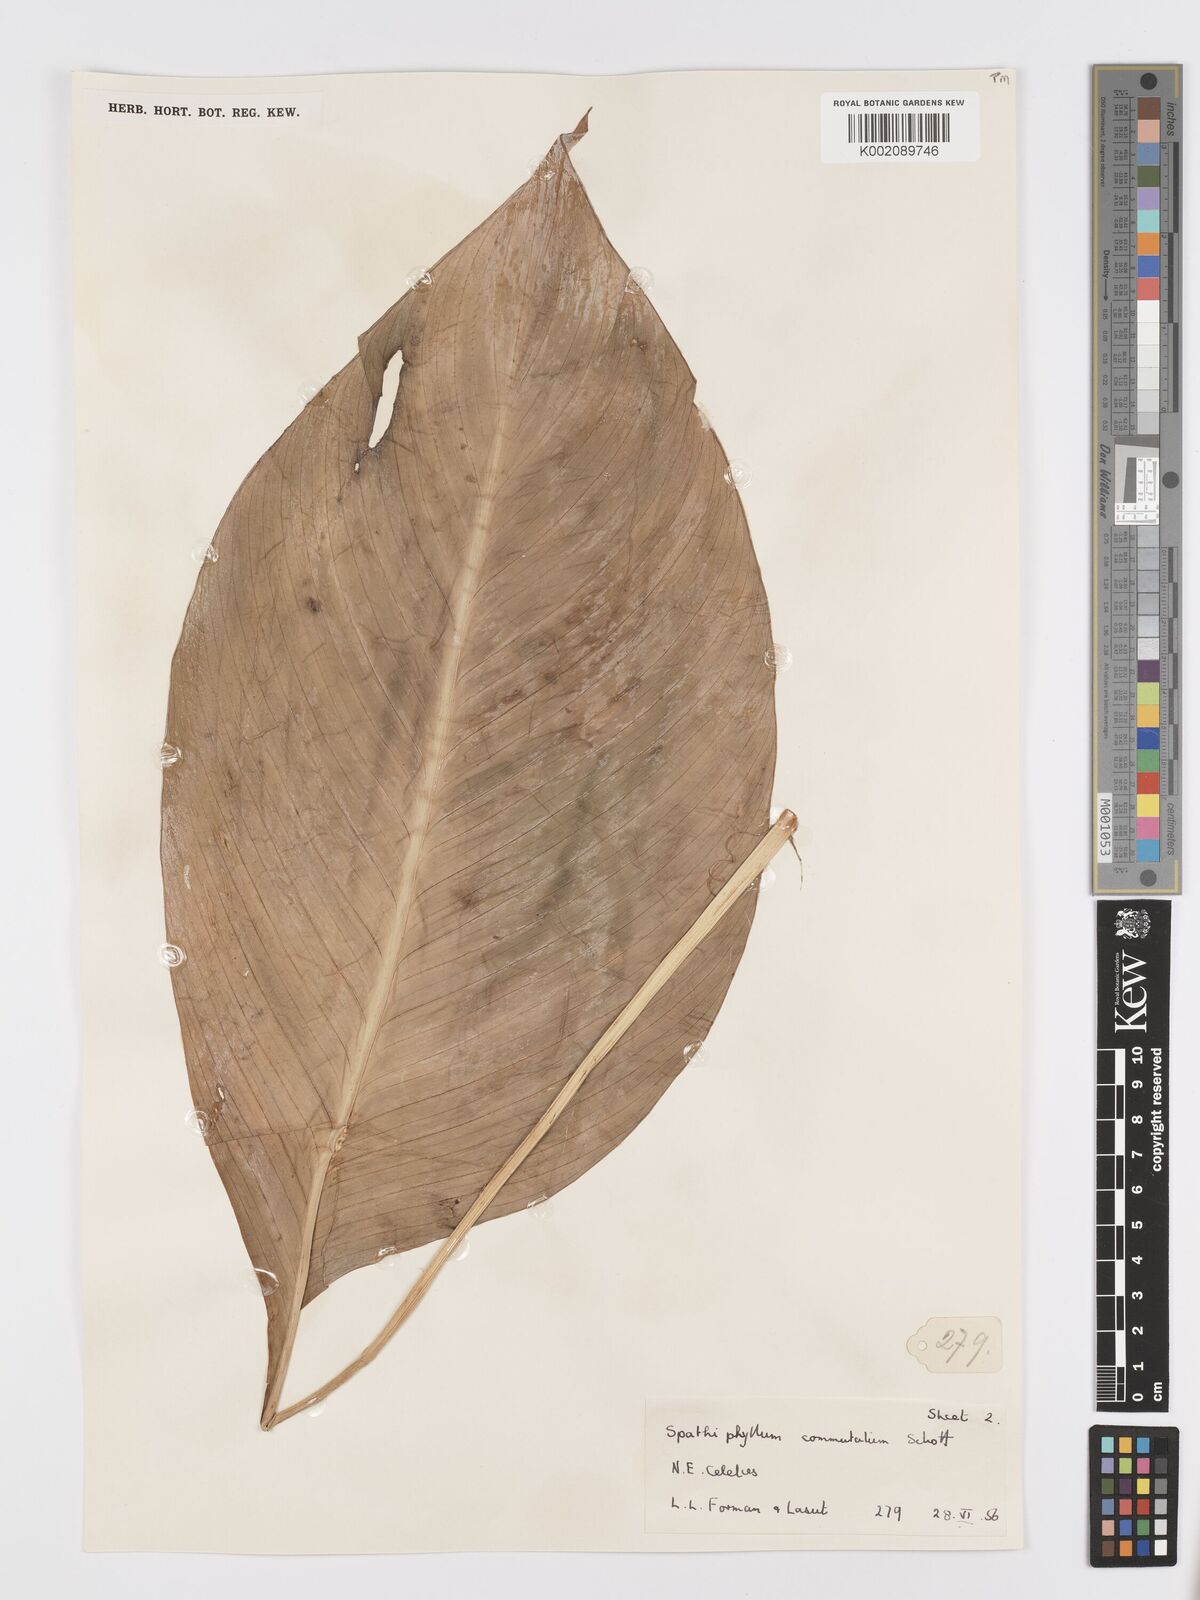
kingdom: Plantae
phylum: Tracheophyta
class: Liliopsida
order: Alismatales
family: Araceae
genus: Spathiphyllum
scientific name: Spathiphyllum commutatum
